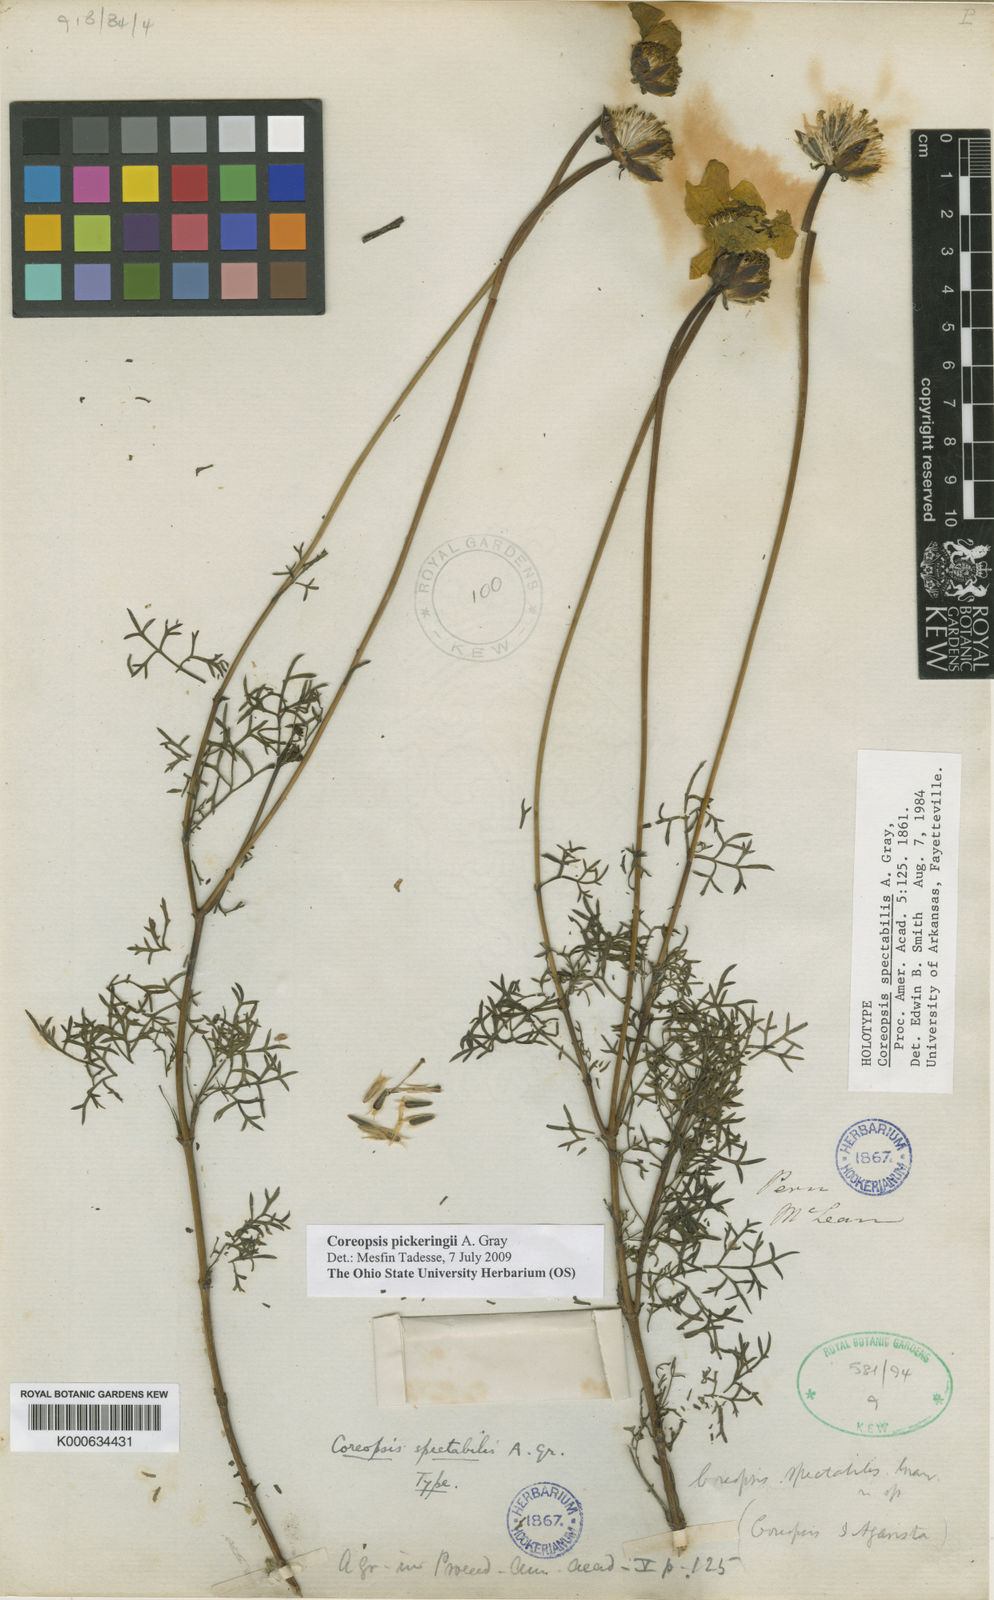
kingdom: Plantae
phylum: Tracheophyta
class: Magnoliopsida
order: Asterales
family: Asteraceae
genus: Coreopsis
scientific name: Coreopsis pickeringii
